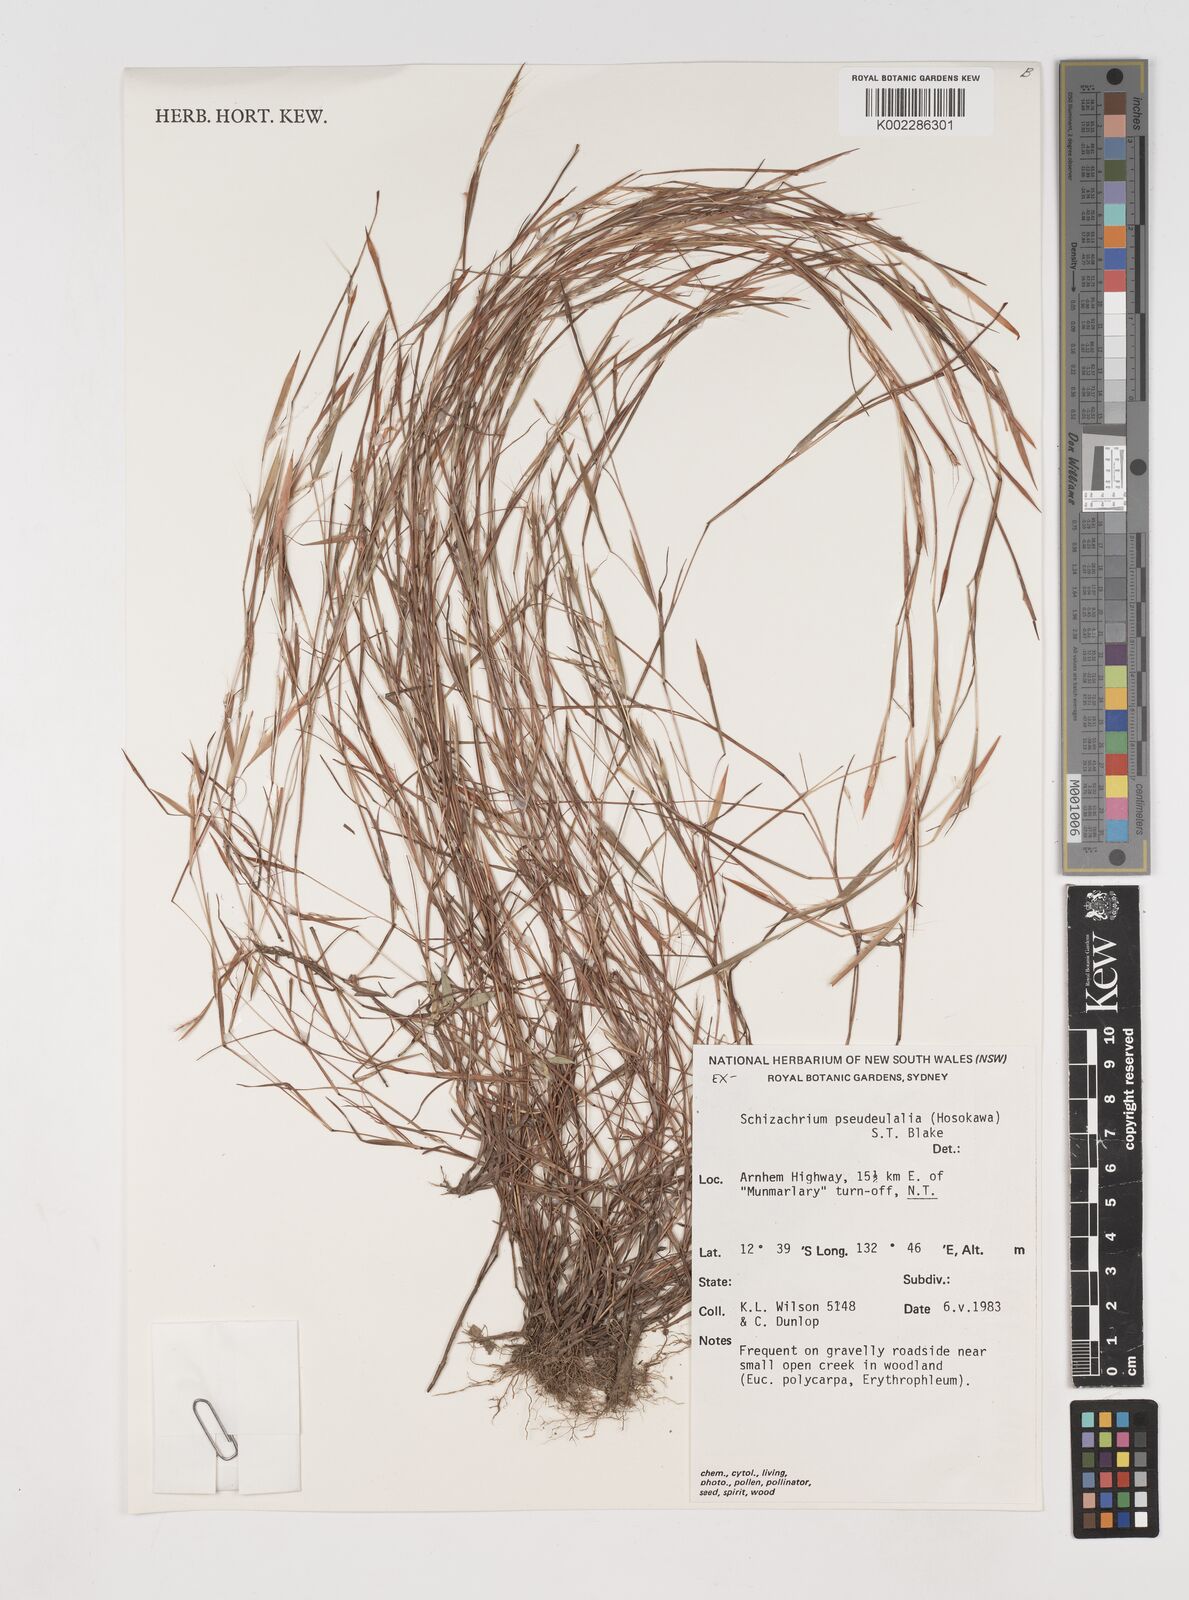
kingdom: Plantae
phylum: Tracheophyta
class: Liliopsida
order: Poales
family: Poaceae
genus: Schizachyrium
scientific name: Schizachyrium pseudeulalia
